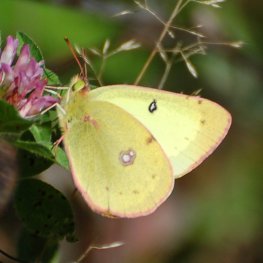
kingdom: Animalia
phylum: Arthropoda
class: Insecta
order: Lepidoptera
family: Pieridae
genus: Colias
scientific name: Colias philodice
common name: Clouded Sulphur
